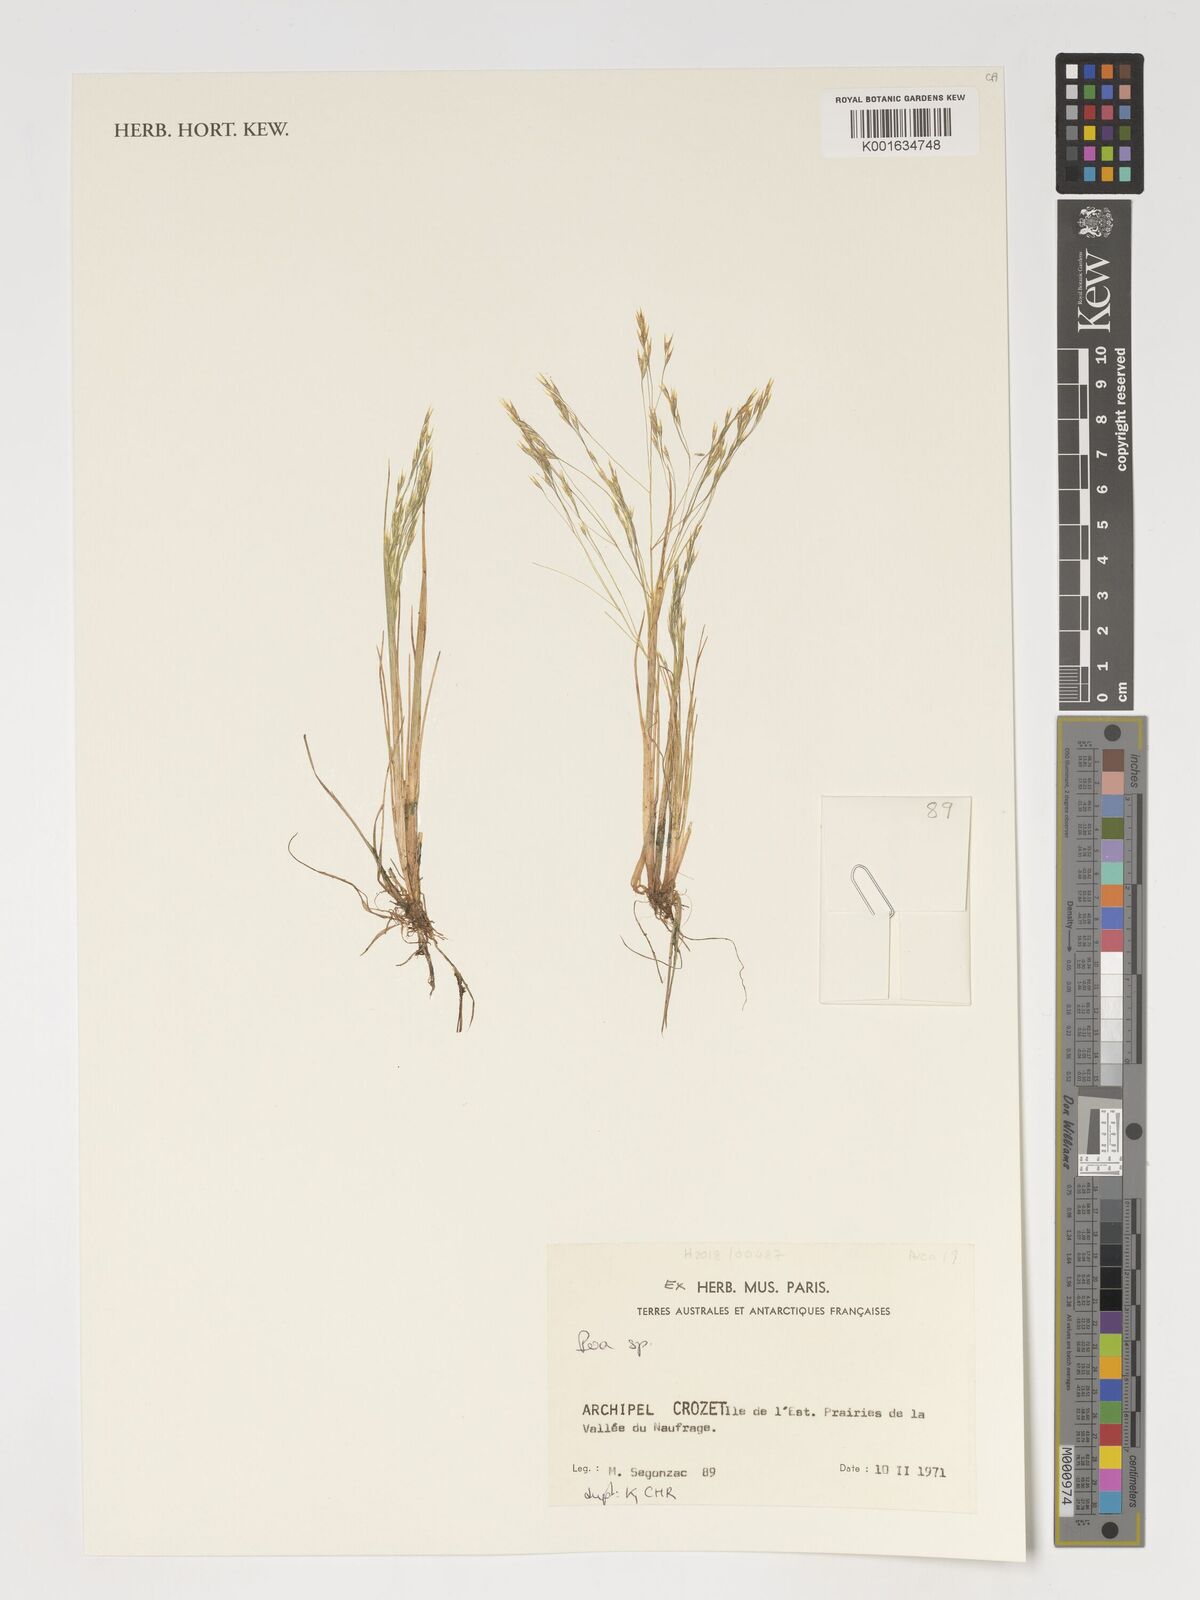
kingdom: Plantae
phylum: Tracheophyta
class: Liliopsida
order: Poales
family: Poaceae
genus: Poa
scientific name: Poa
